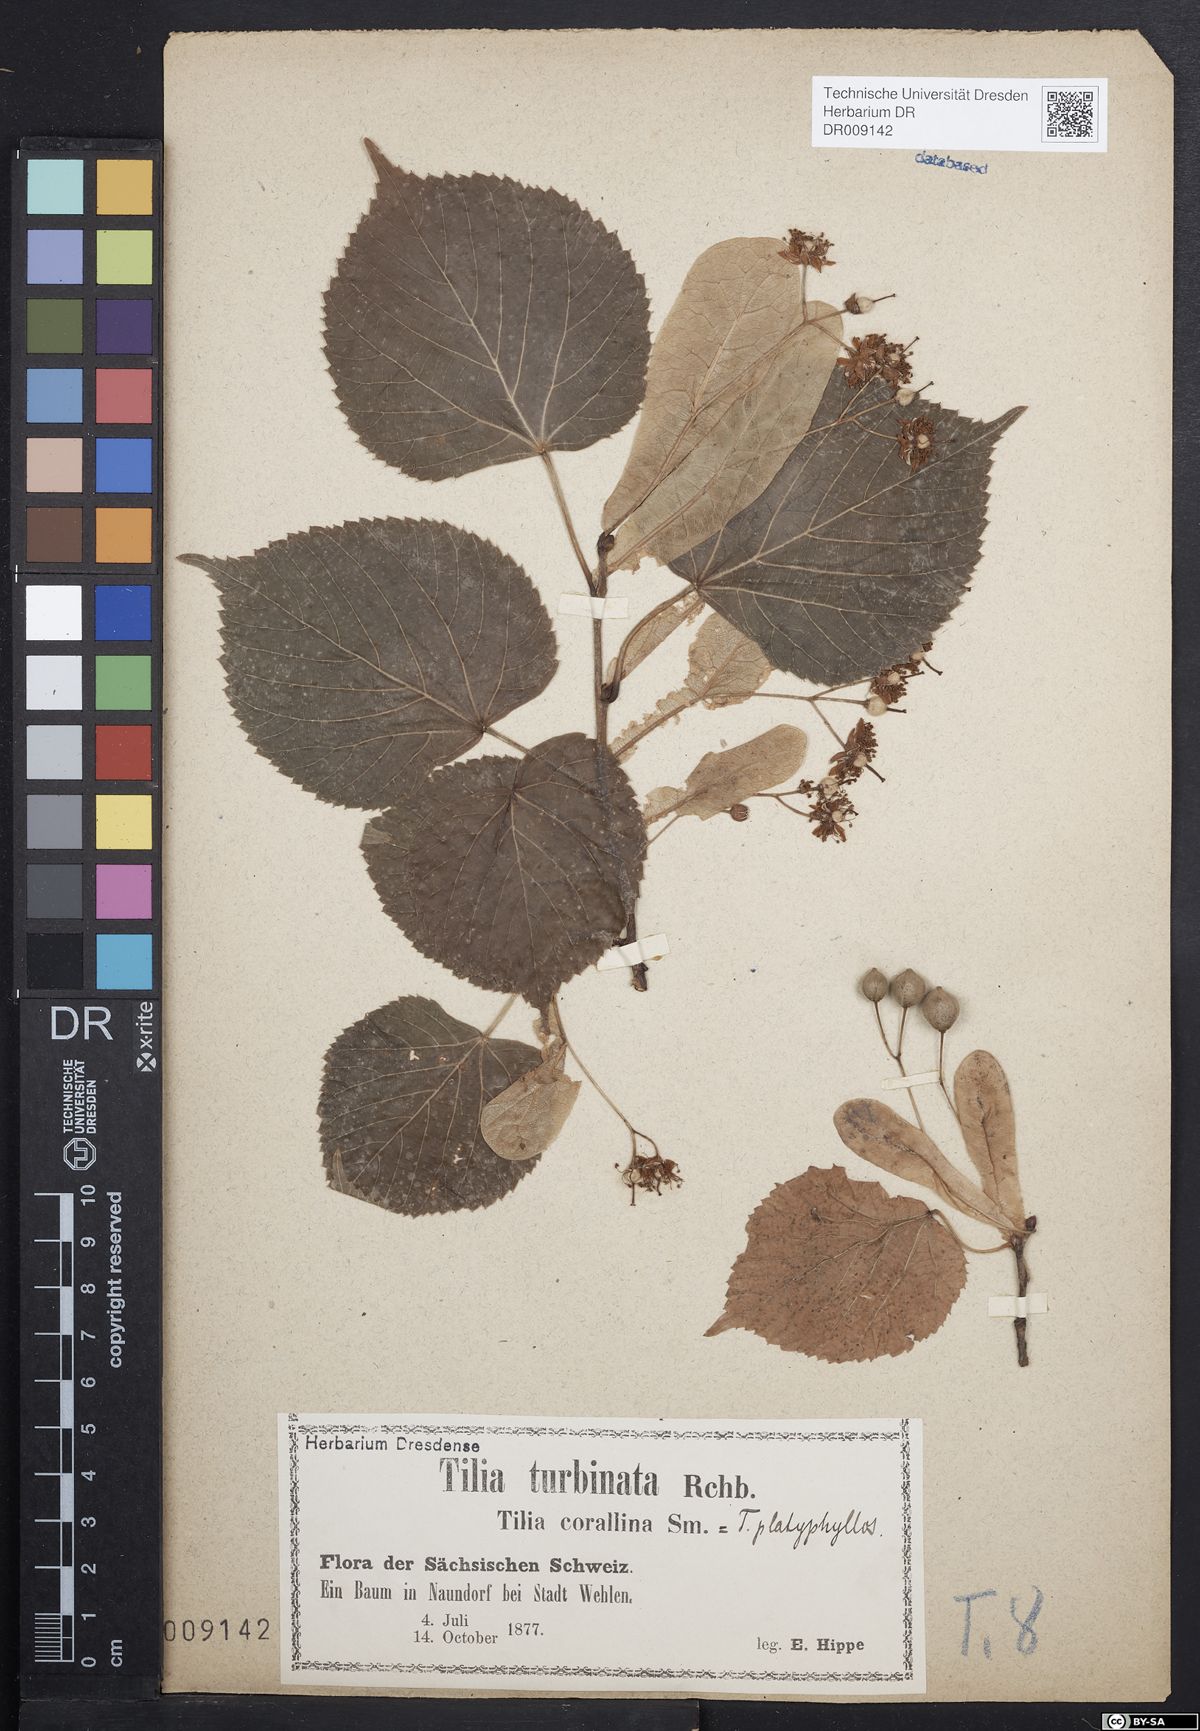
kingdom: Plantae
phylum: Tracheophyta
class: Magnoliopsida
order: Malvales
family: Malvaceae
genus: Tilia
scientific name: Tilia platyphyllos
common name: Large-leaved lime
